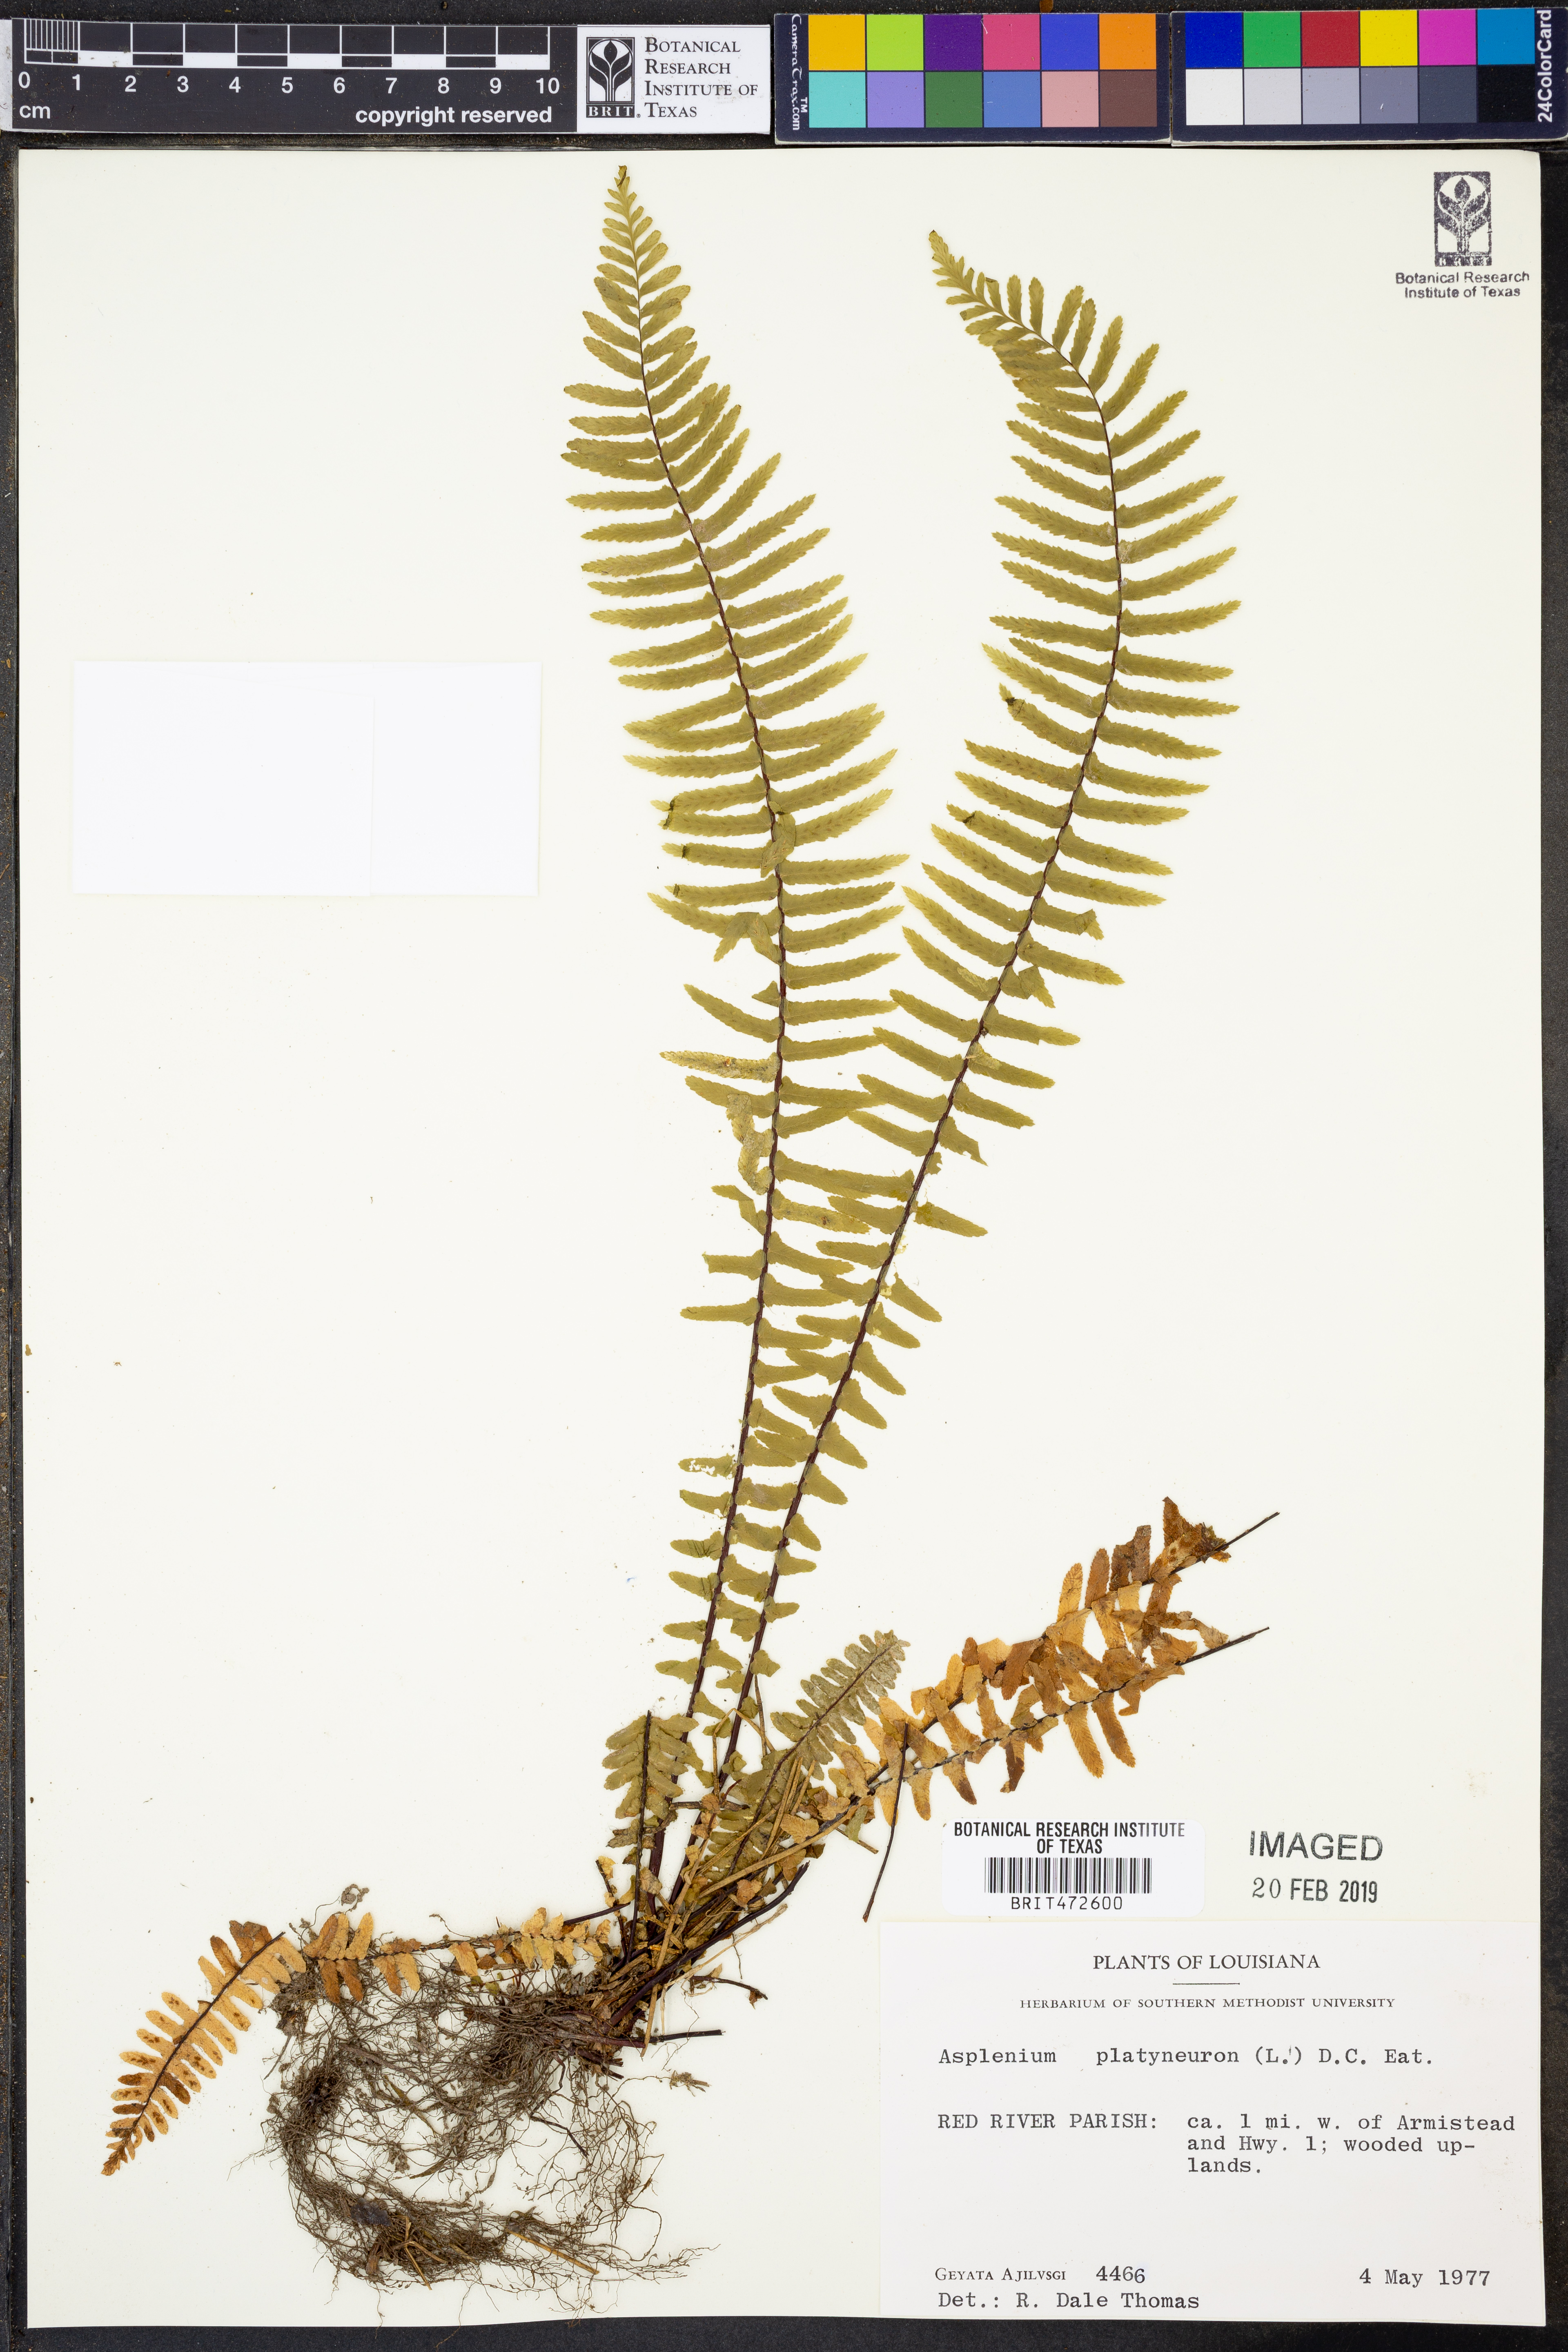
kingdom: Plantae
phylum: Tracheophyta
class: Polypodiopsida
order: Polypodiales
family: Aspleniaceae
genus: Asplenium
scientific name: Asplenium platyneuron
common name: Ebony spleenwort
